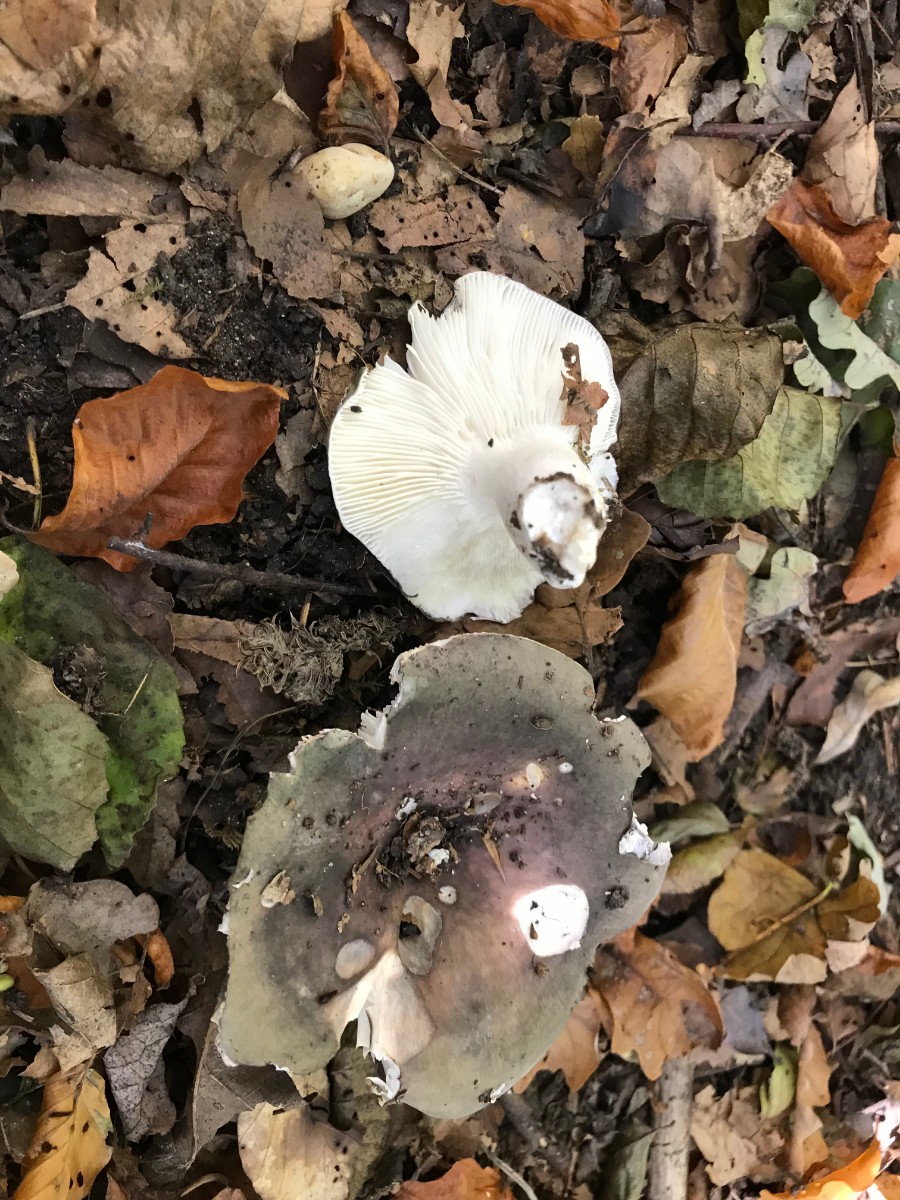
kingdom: Fungi
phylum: Basidiomycota
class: Agaricomycetes
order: Russulales
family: Russulaceae
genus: Russula
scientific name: Russula cyanoxantha
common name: broget skørhat
